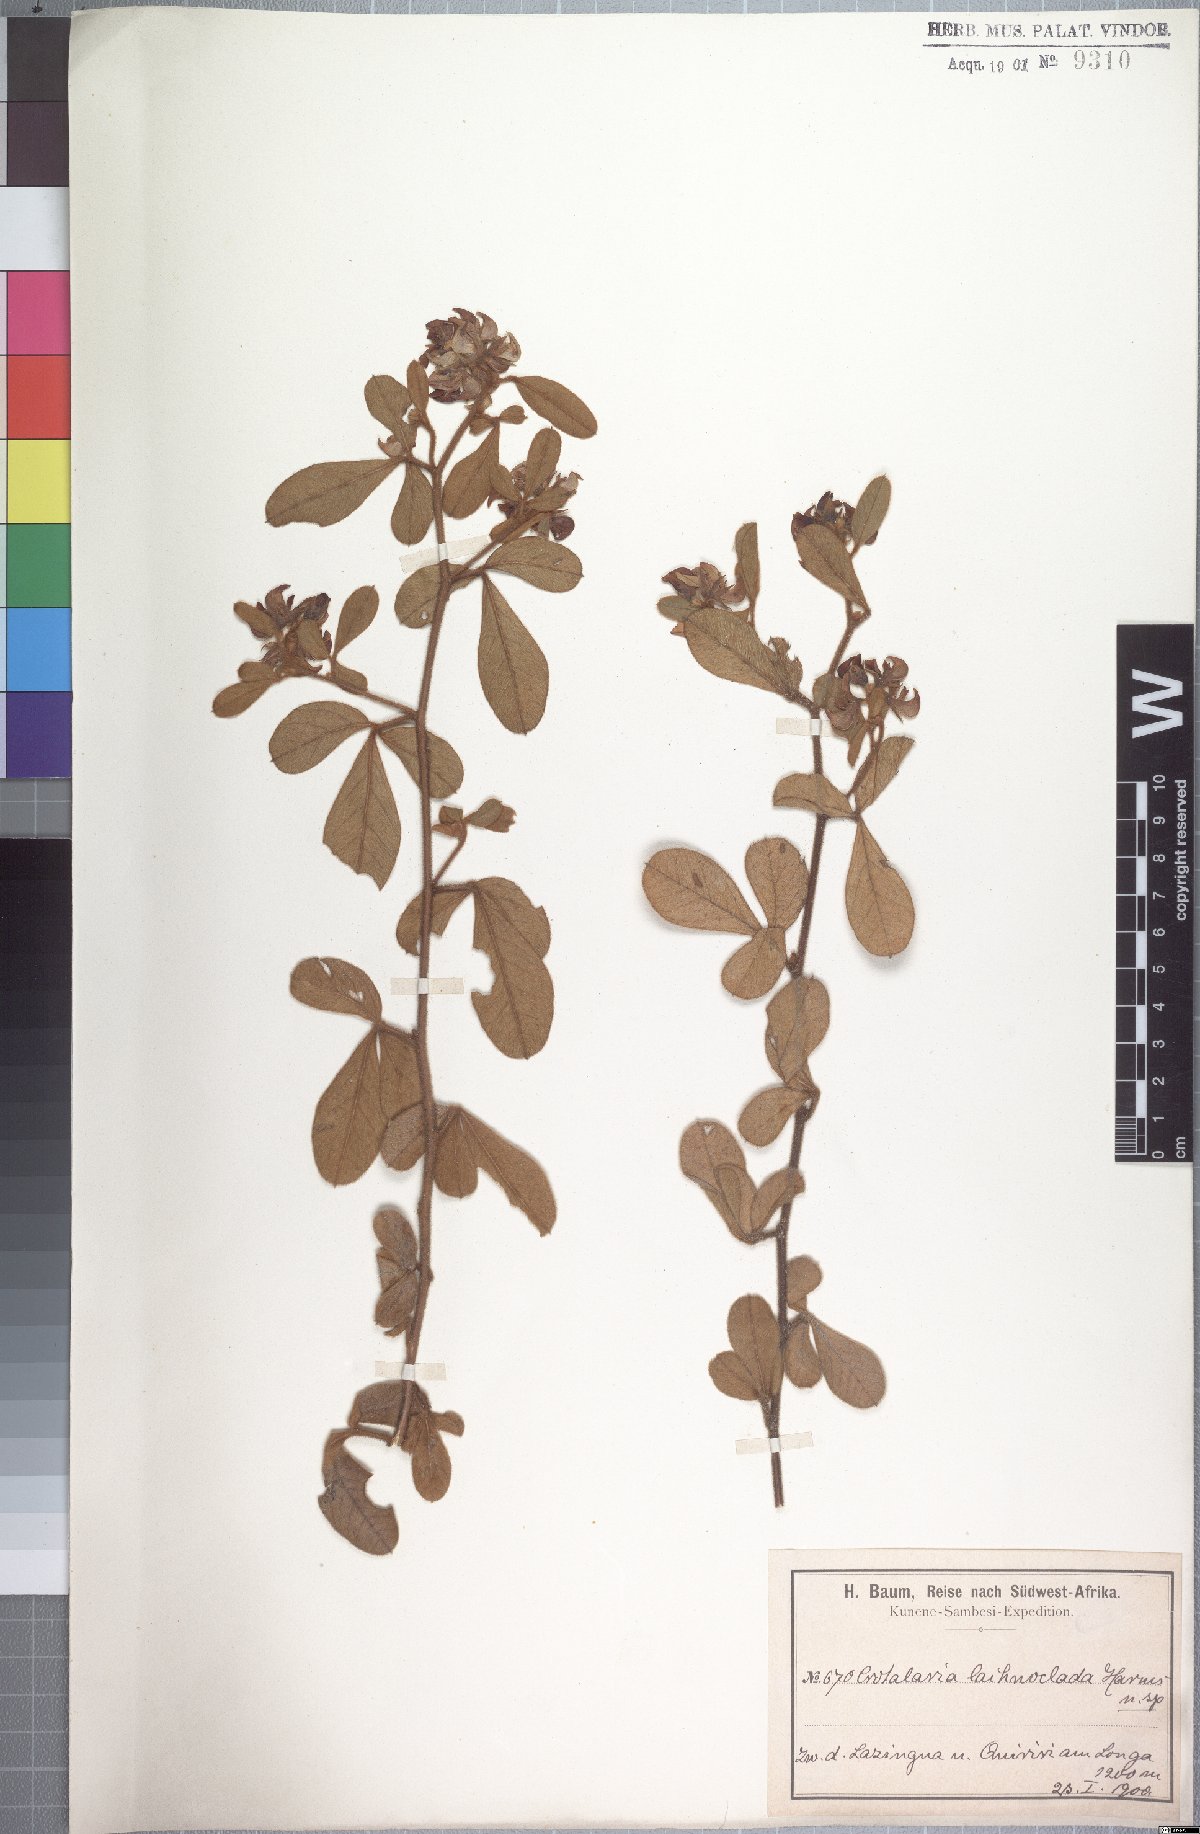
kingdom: Plantae
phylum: Tracheophyta
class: Magnoliopsida
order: Fabales
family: Fabaceae
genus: Crotalaria
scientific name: Crotalaria densicephala
